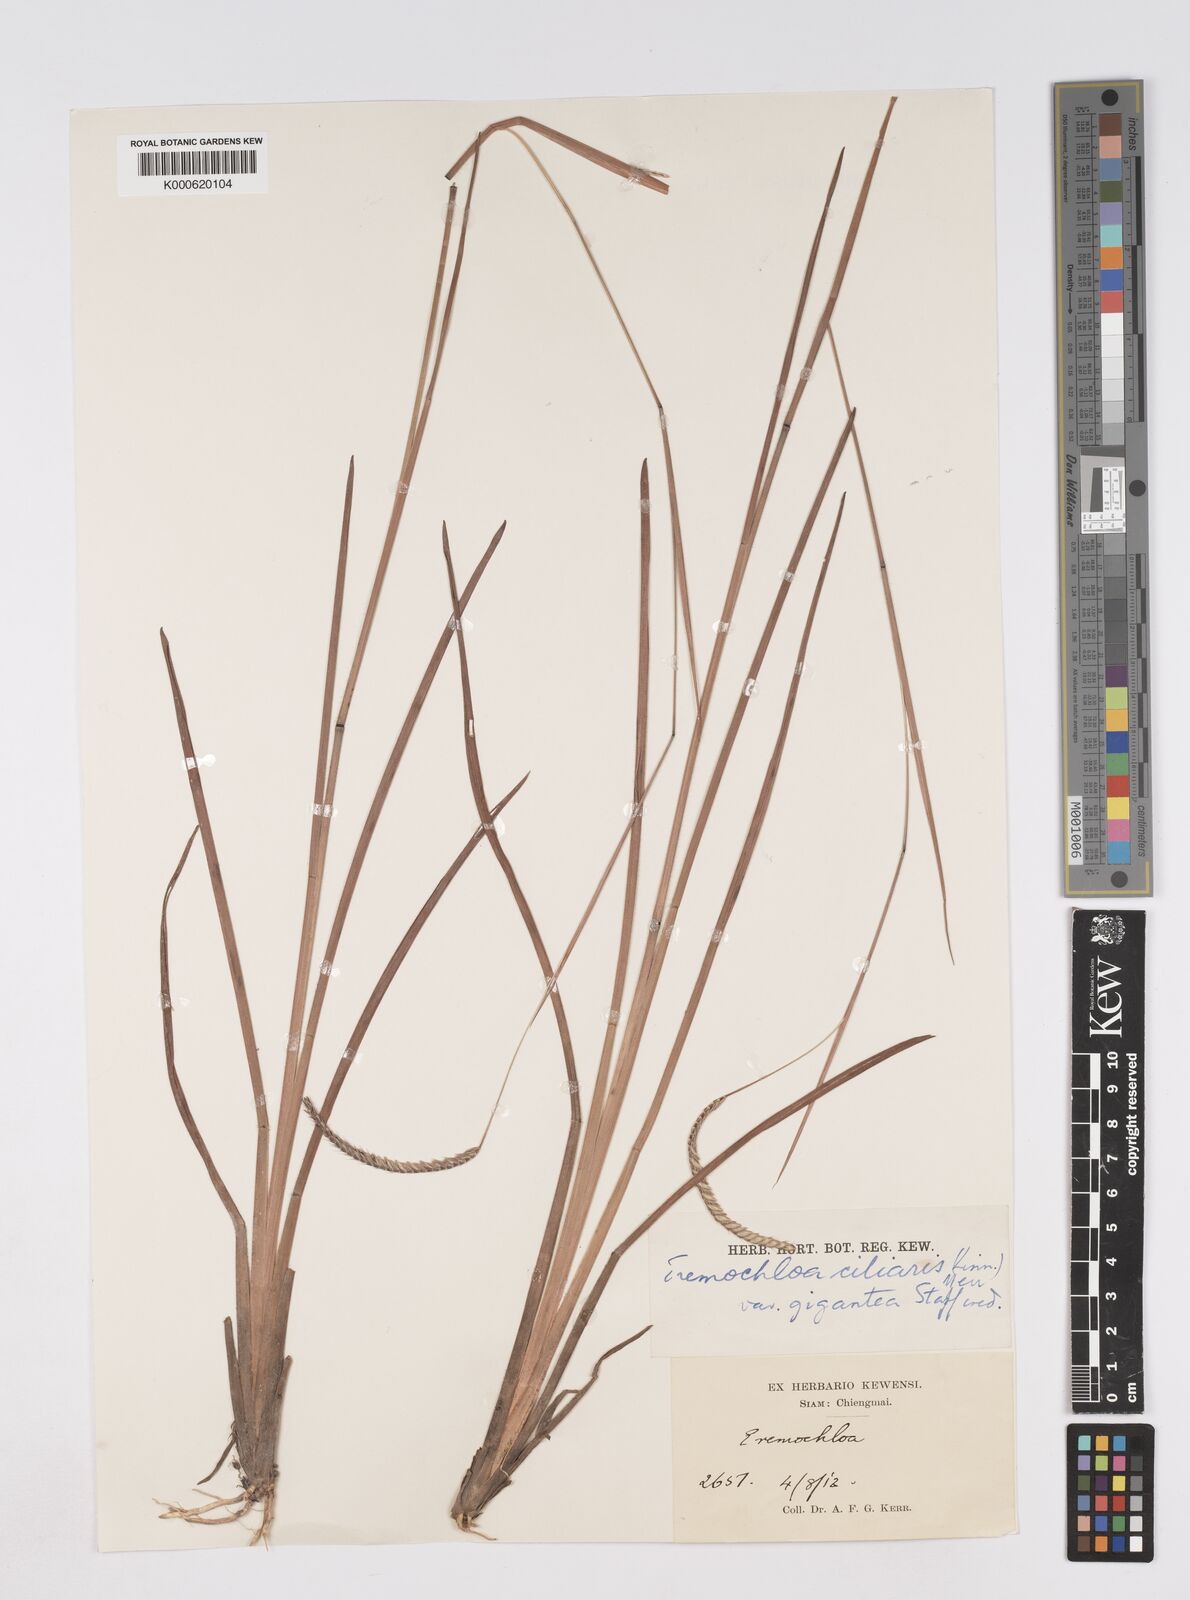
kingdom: Plantae
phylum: Tracheophyta
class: Liliopsida
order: Poales
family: Poaceae
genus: Eremochloa
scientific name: Eremochloa ciliaris
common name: Fringed centipede grass
